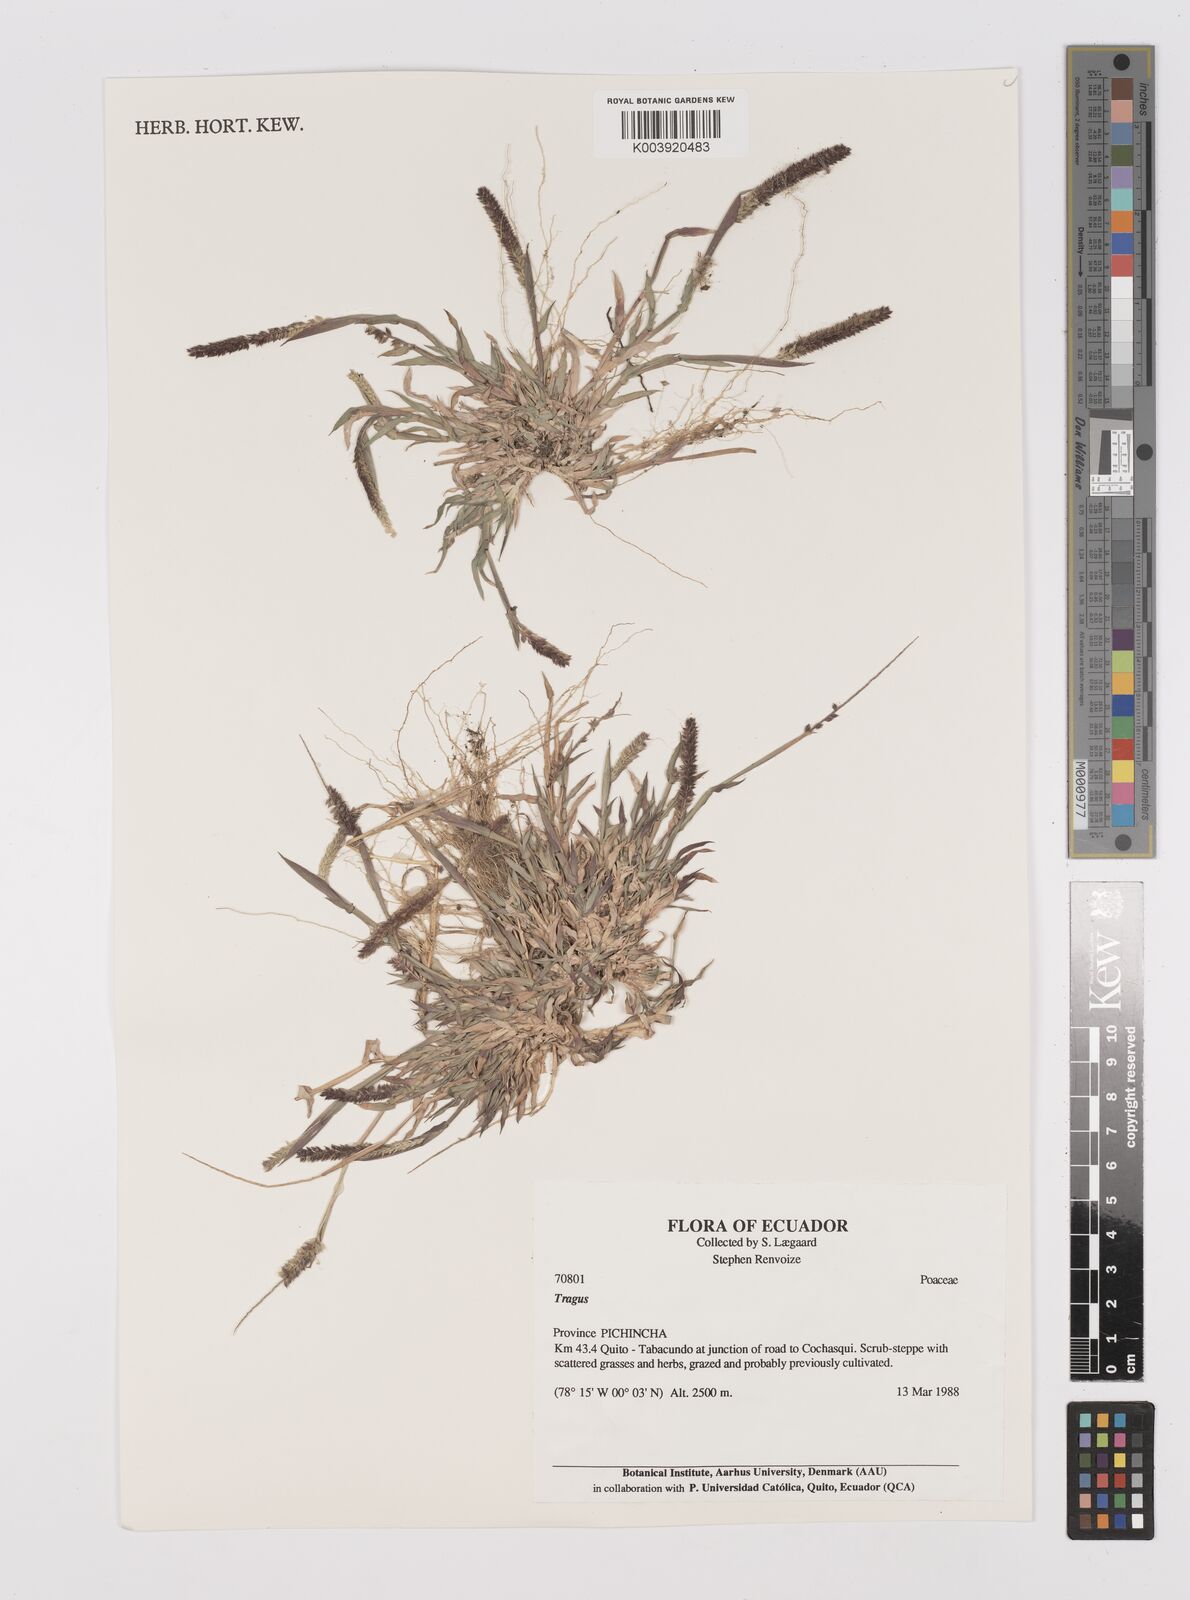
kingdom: Plantae
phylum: Tracheophyta
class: Liliopsida
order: Poales
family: Poaceae
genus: Tragus
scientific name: Tragus berteronianus
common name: African bur-grass
